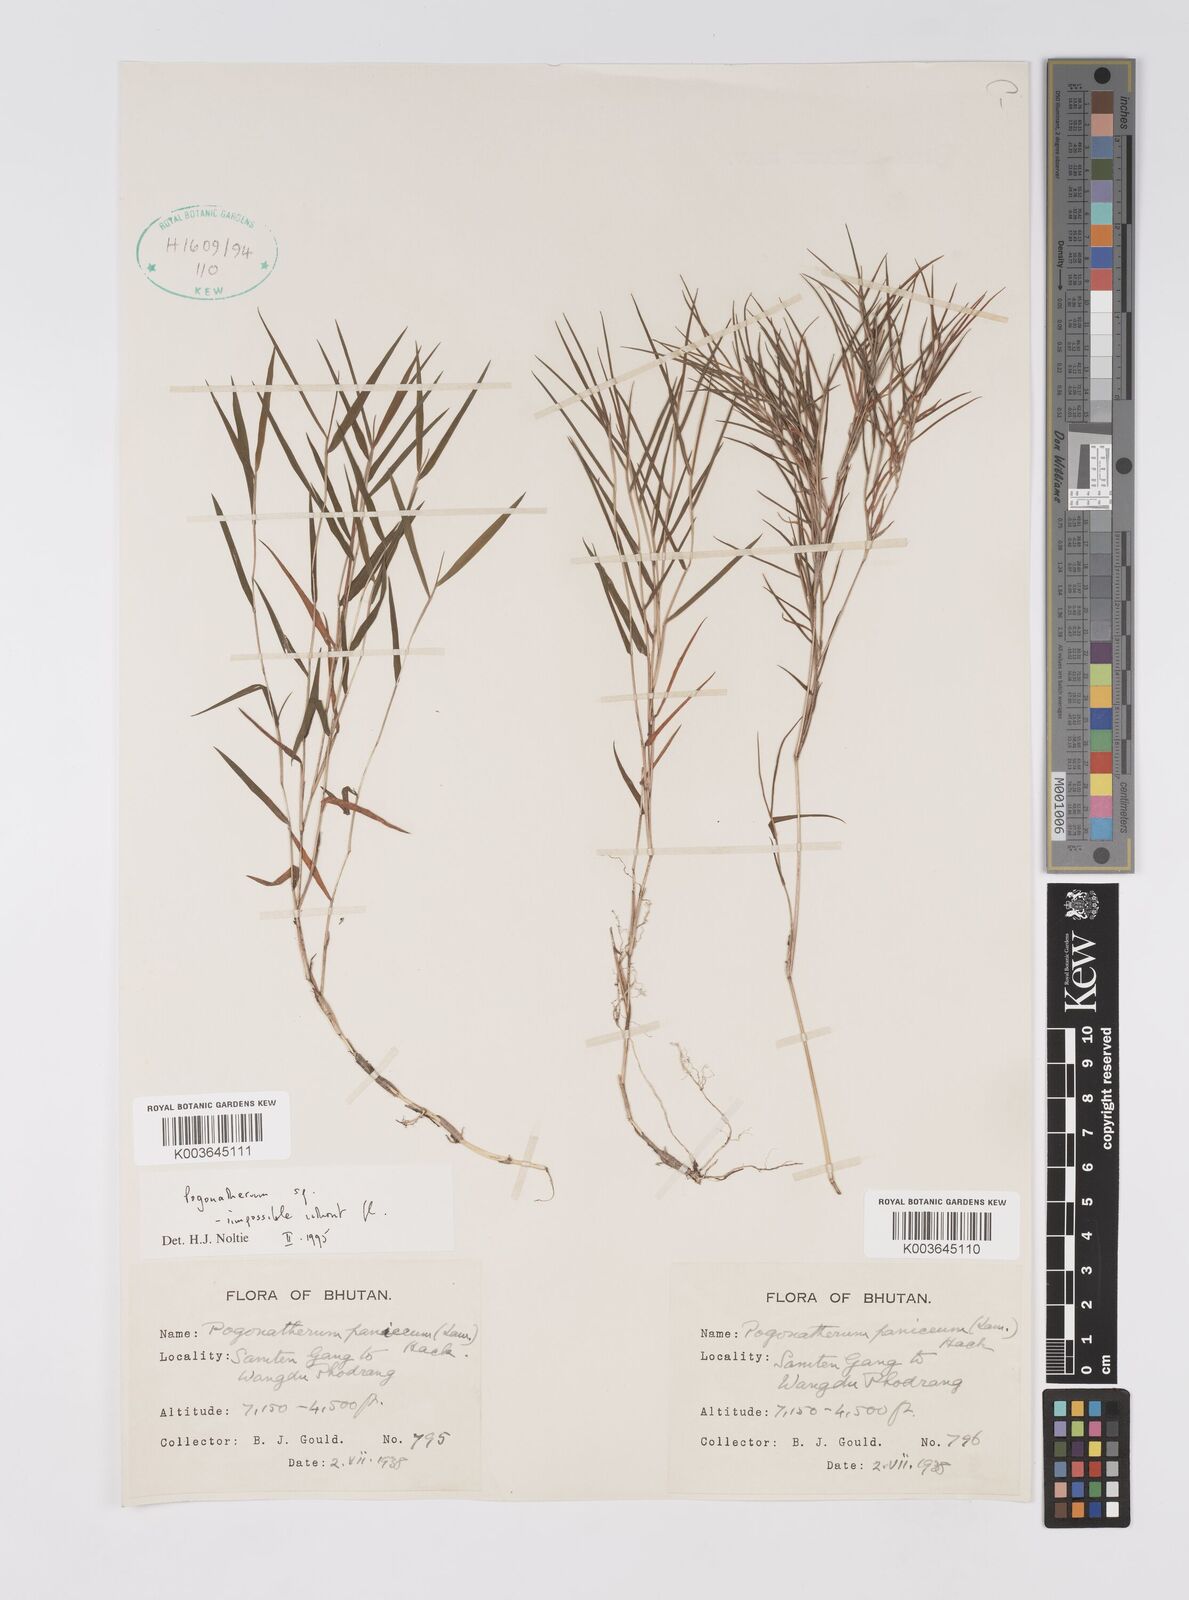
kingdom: Plantae
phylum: Tracheophyta
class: Liliopsida
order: Poales
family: Poaceae
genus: Pogonatherum
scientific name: Pogonatherum
